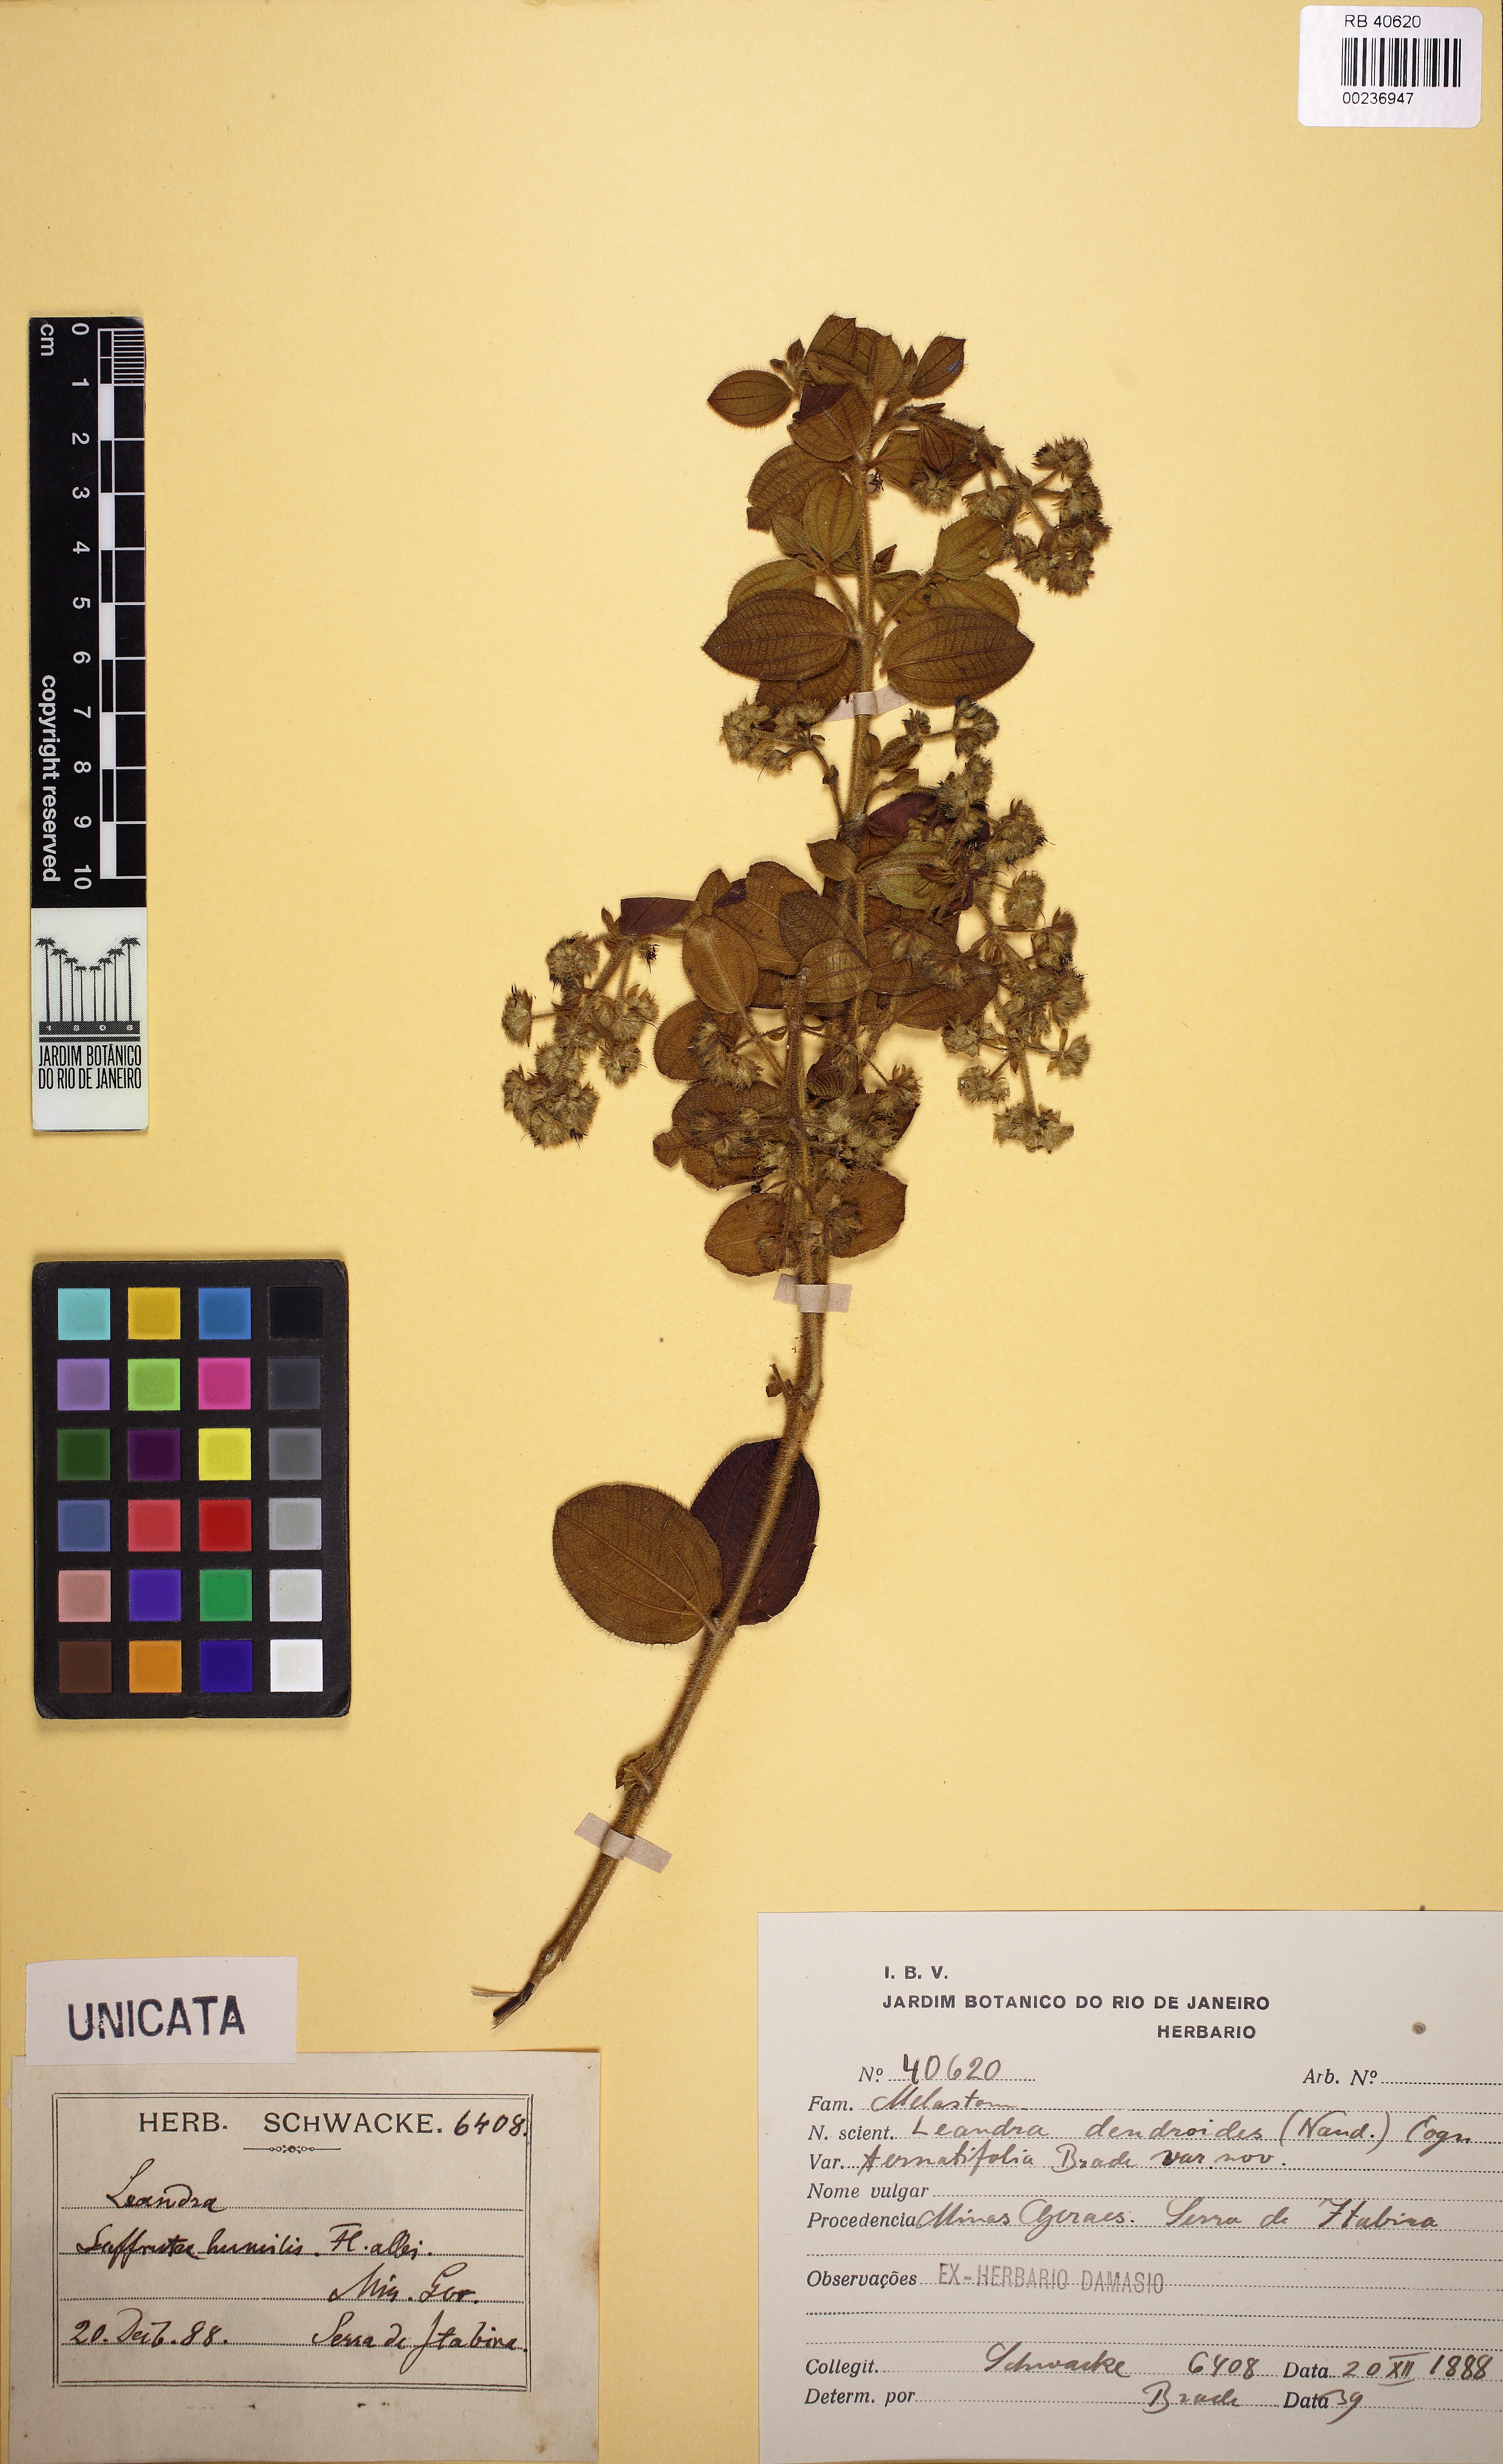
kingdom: Plantae
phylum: Tracheophyta
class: Magnoliopsida
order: Myrtales
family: Melastomataceae
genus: Miconia
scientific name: Miconia dendroides
